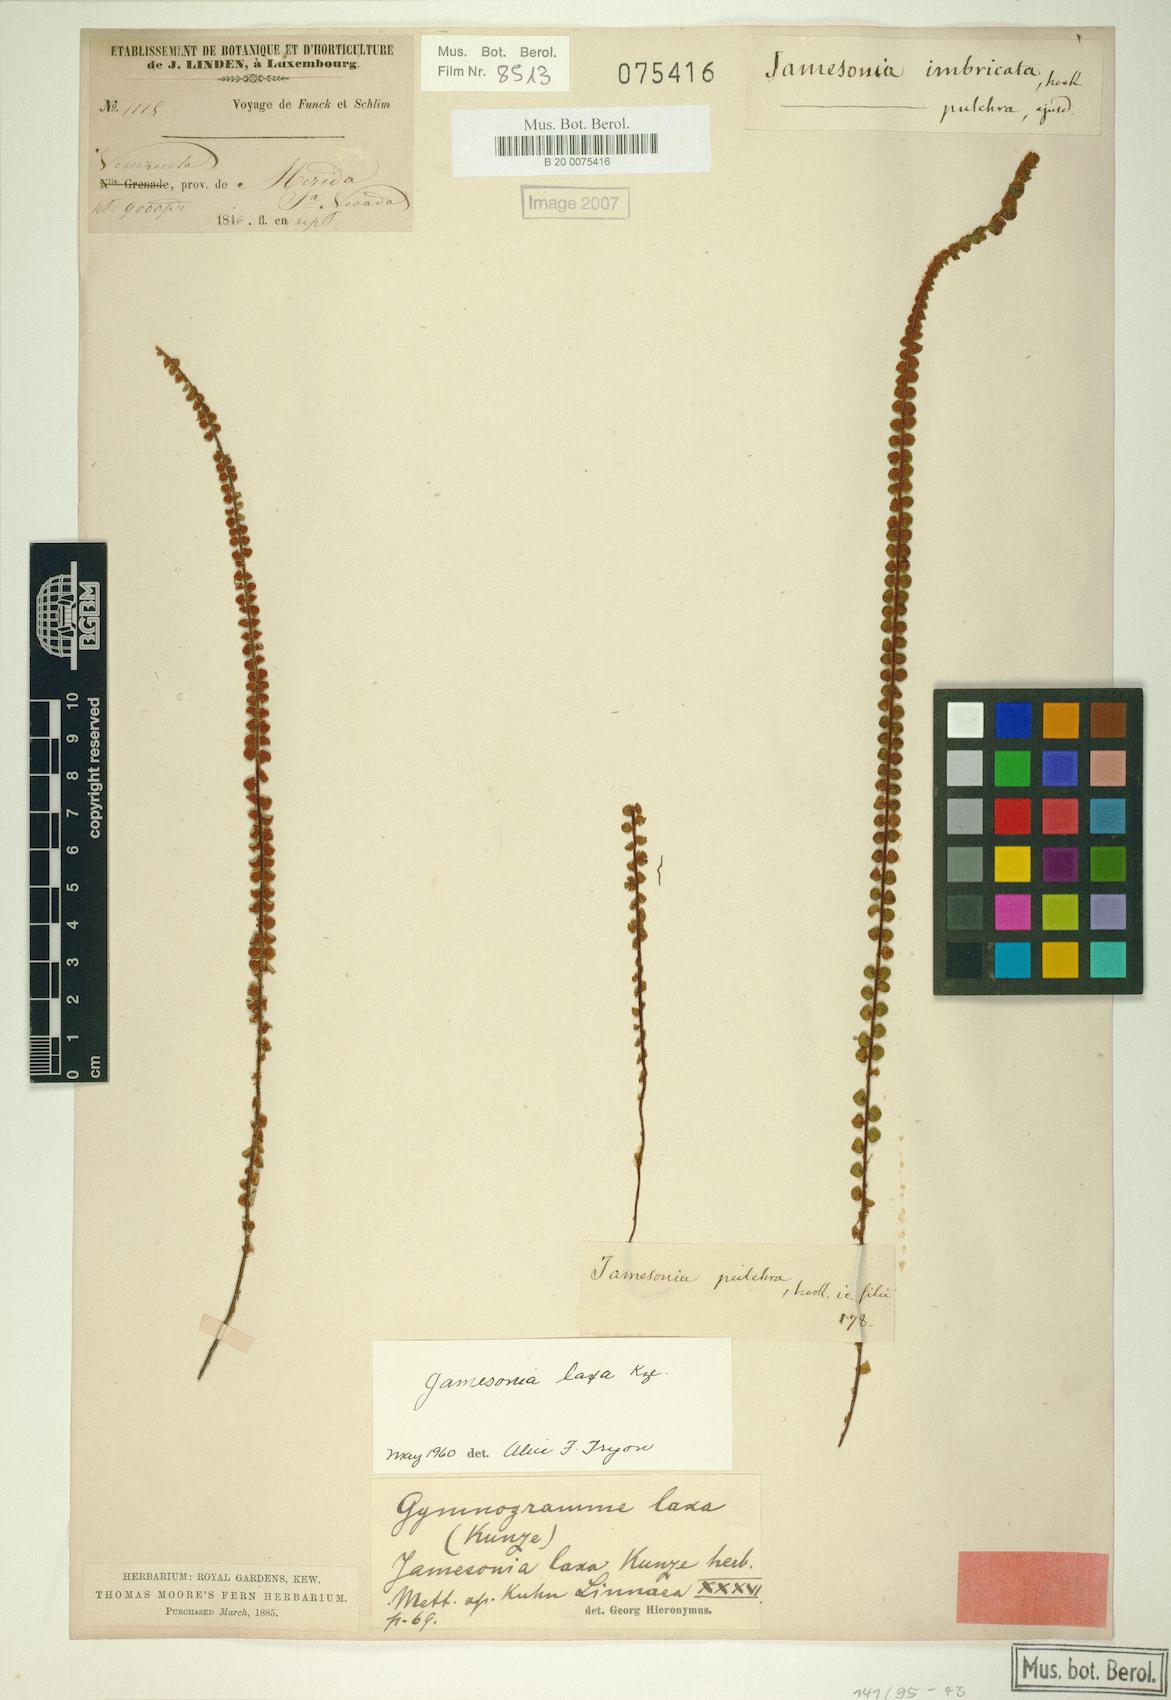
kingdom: Plantae
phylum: Tracheophyta
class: Polypodiopsida
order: Polypodiales
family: Pteridaceae
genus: Jamesonia
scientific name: Jamesonia laxa
